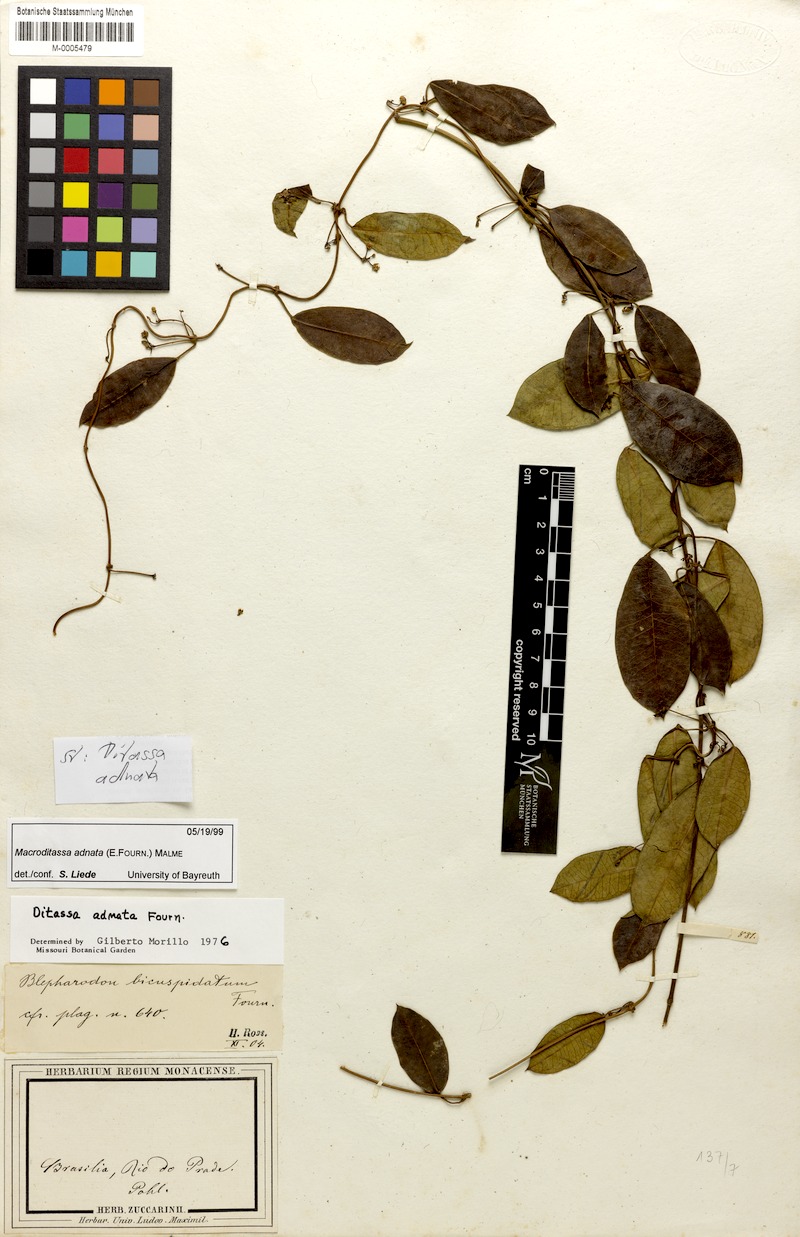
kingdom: Plantae
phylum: Tracheophyta
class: Magnoliopsida
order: Gentianales
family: Apocynaceae
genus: Peplonia
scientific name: Peplonia adnata
